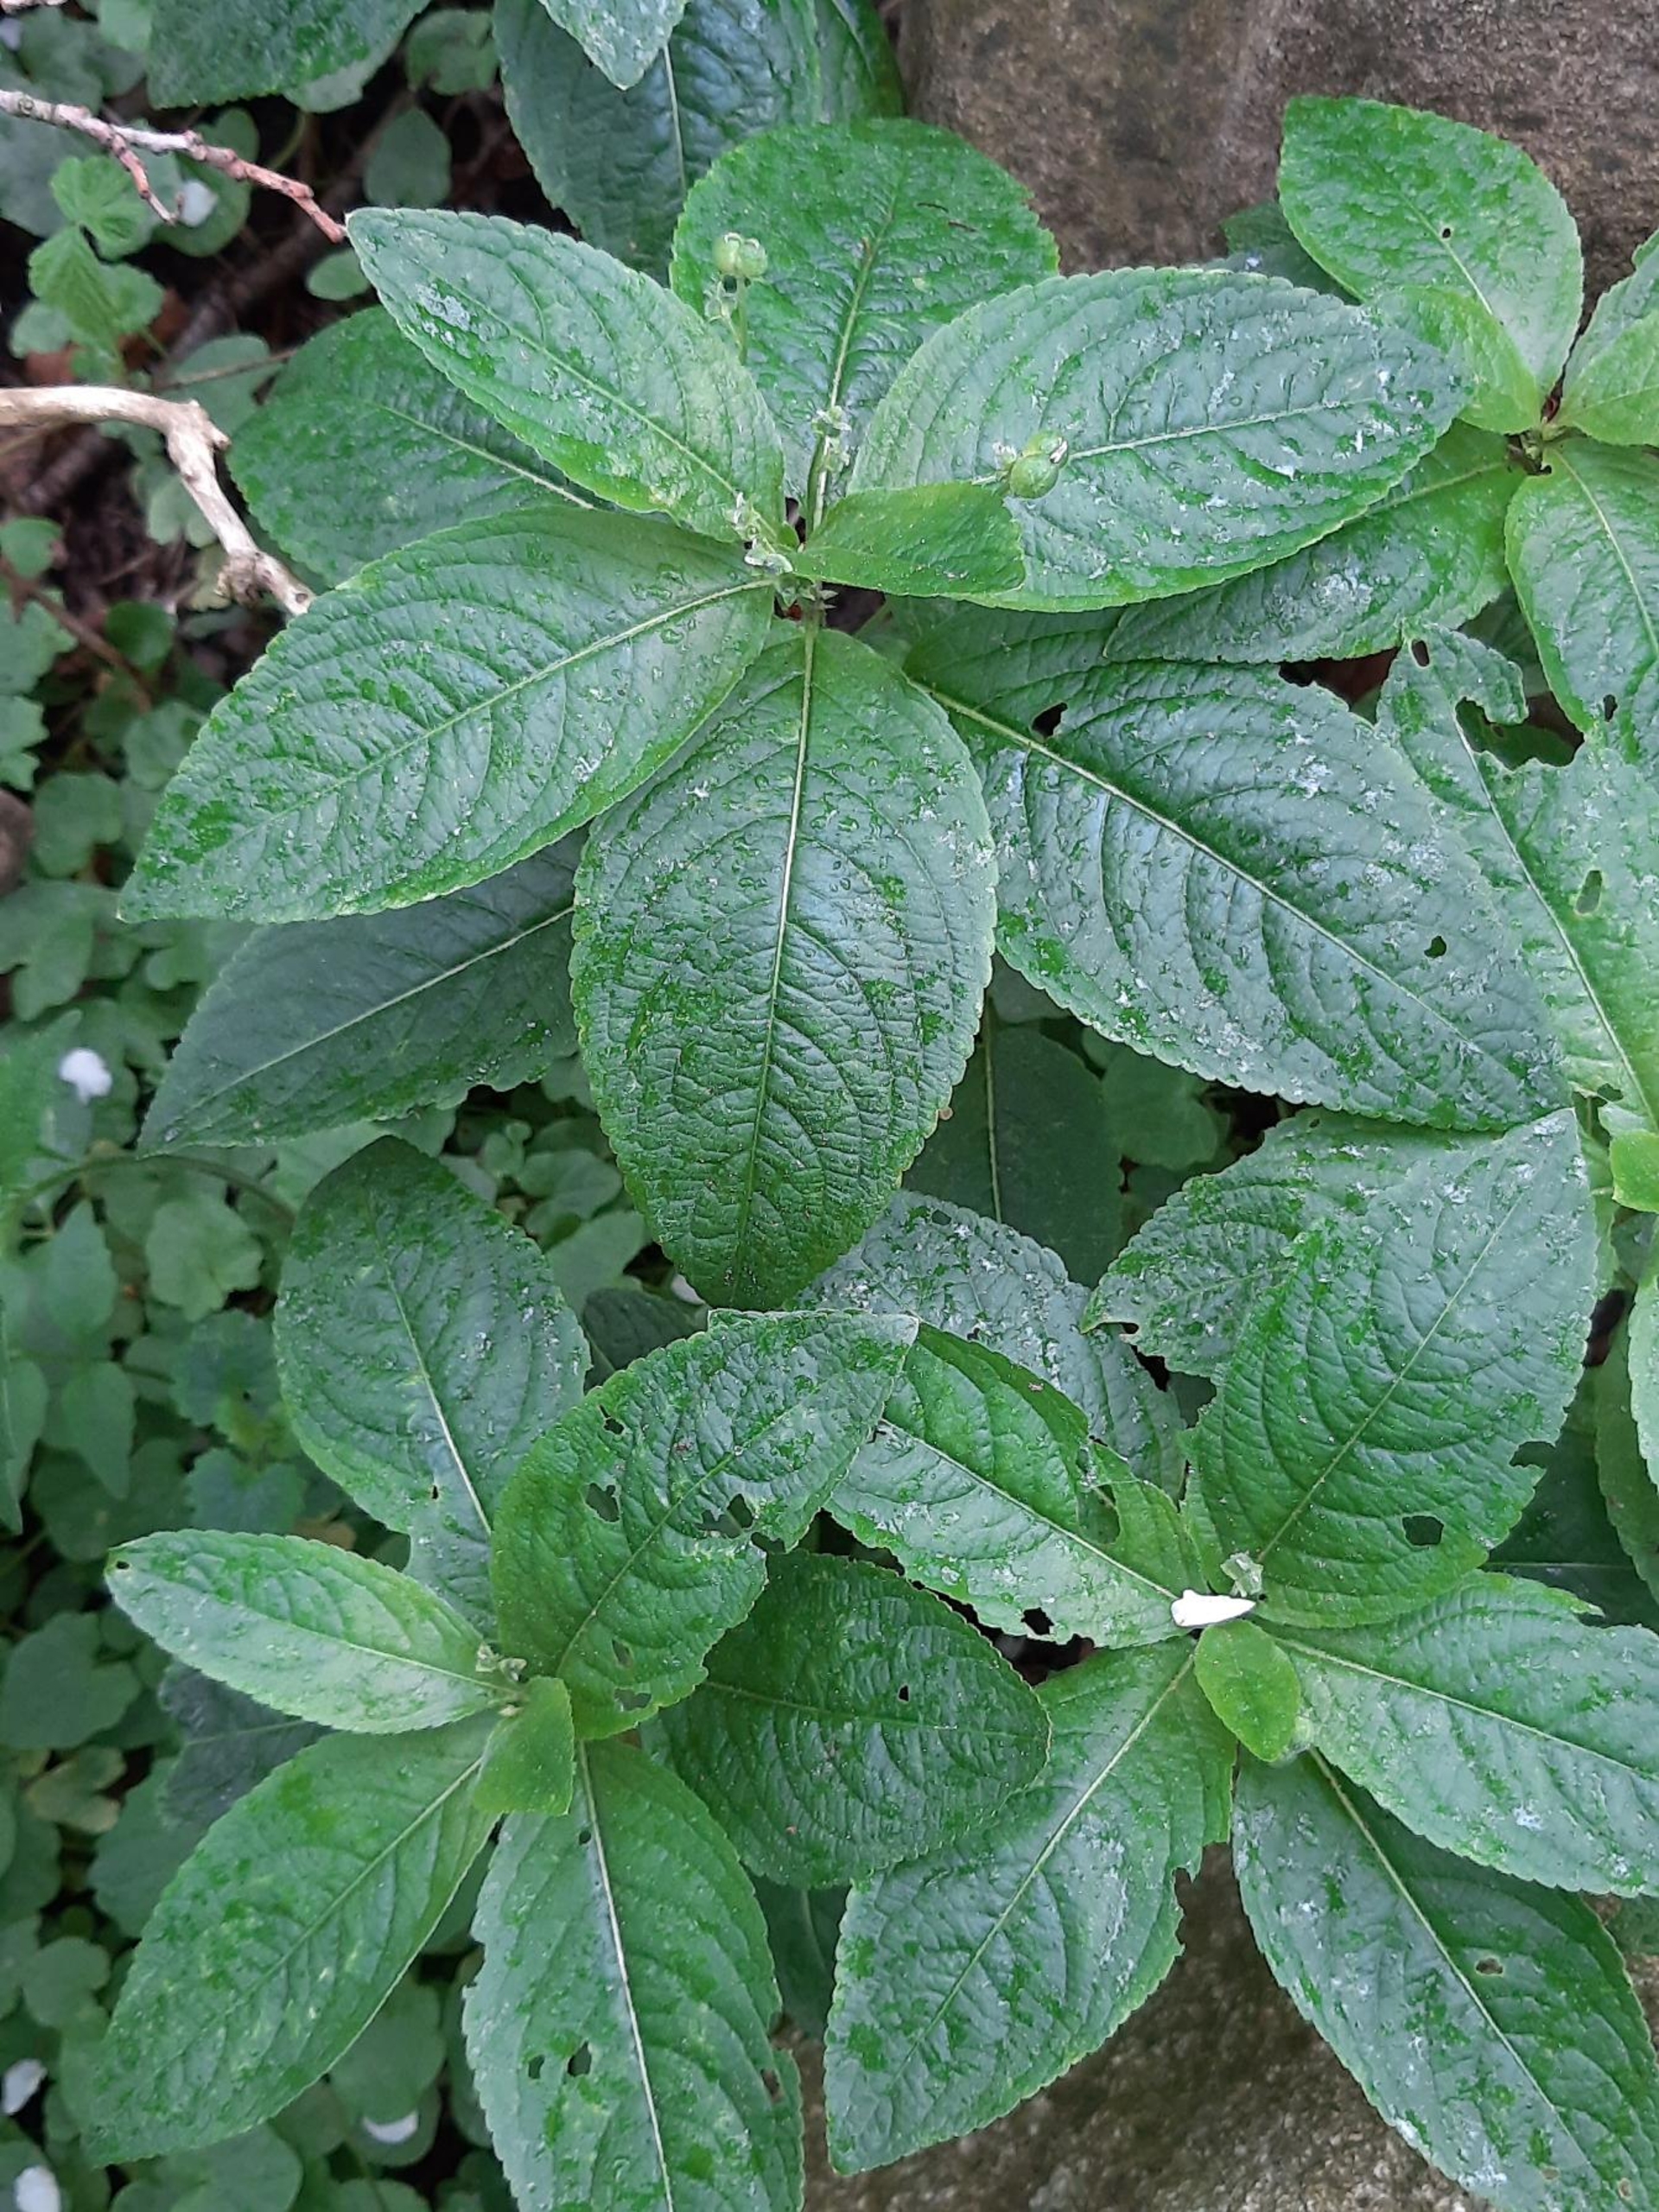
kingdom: Plantae
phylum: Tracheophyta
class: Magnoliopsida
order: Malpighiales
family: Euphorbiaceae
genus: Mercurialis
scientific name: Mercurialis perennis
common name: Almindelig bingelurt
